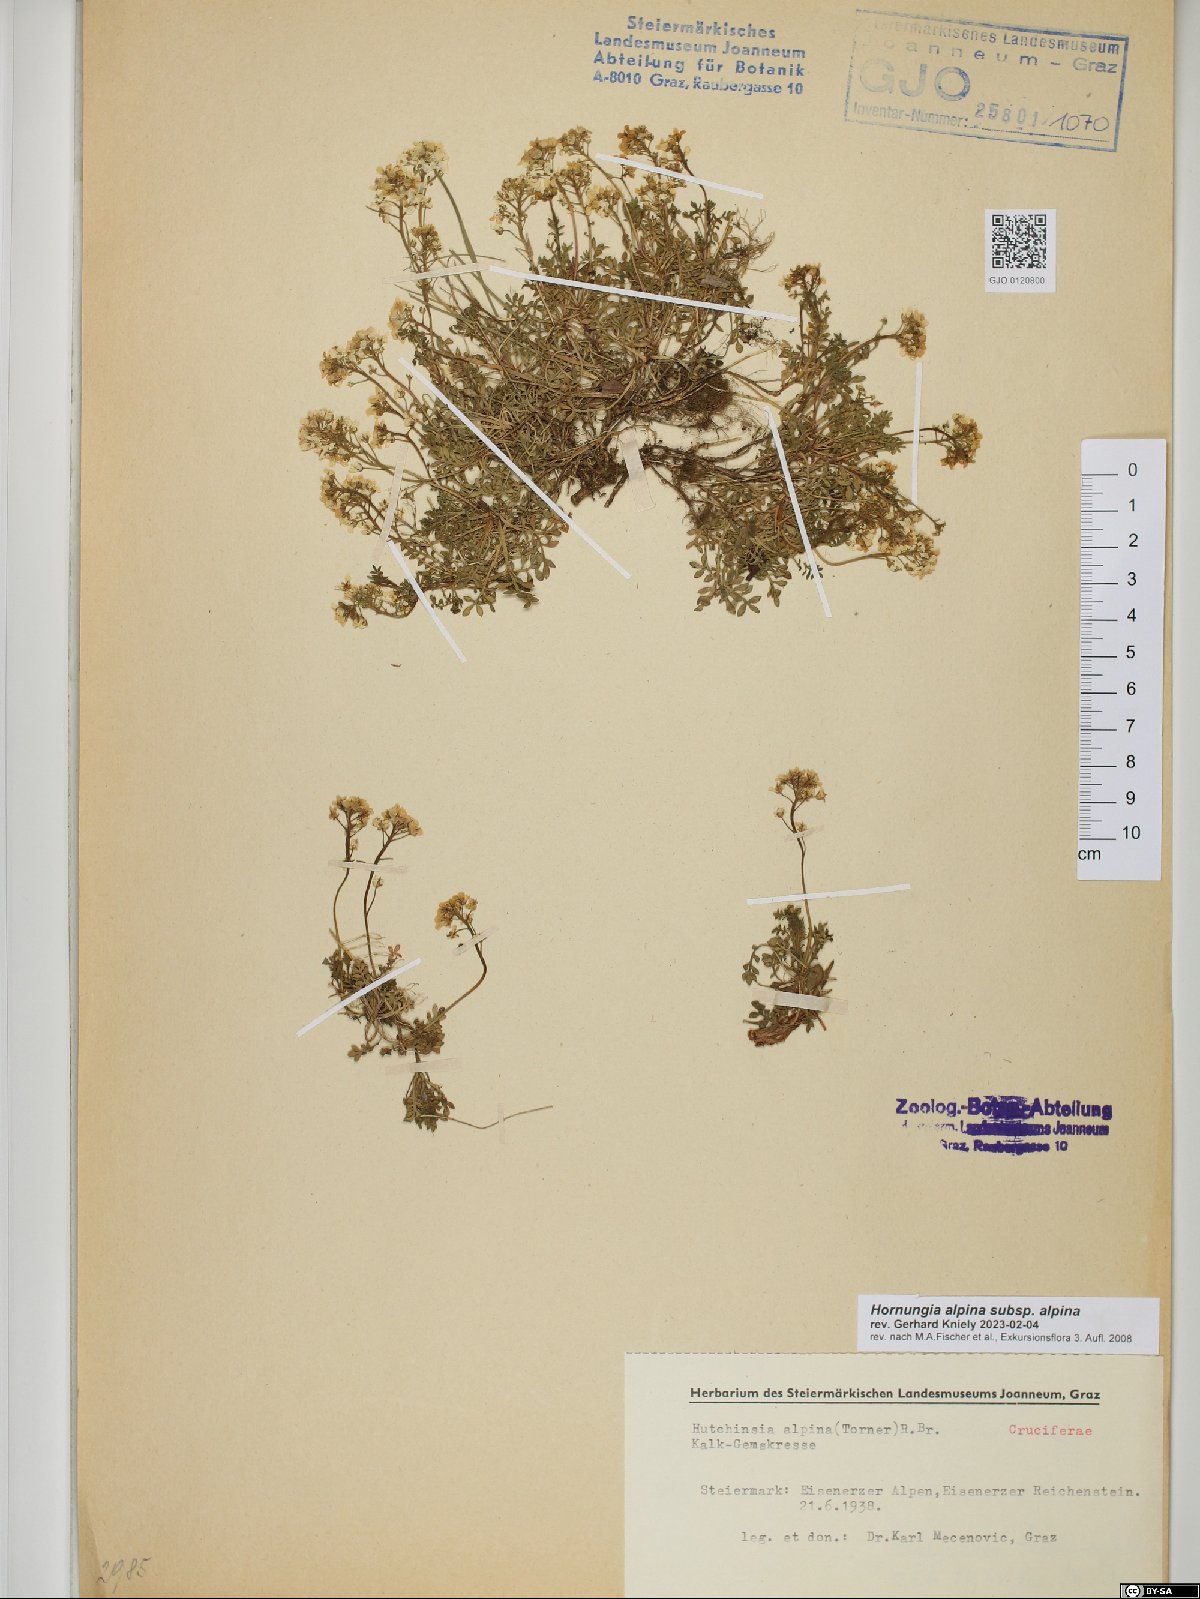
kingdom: Plantae
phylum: Tracheophyta
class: Magnoliopsida
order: Brassicales
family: Brassicaceae
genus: Hornungia
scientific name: Hornungia alpina
